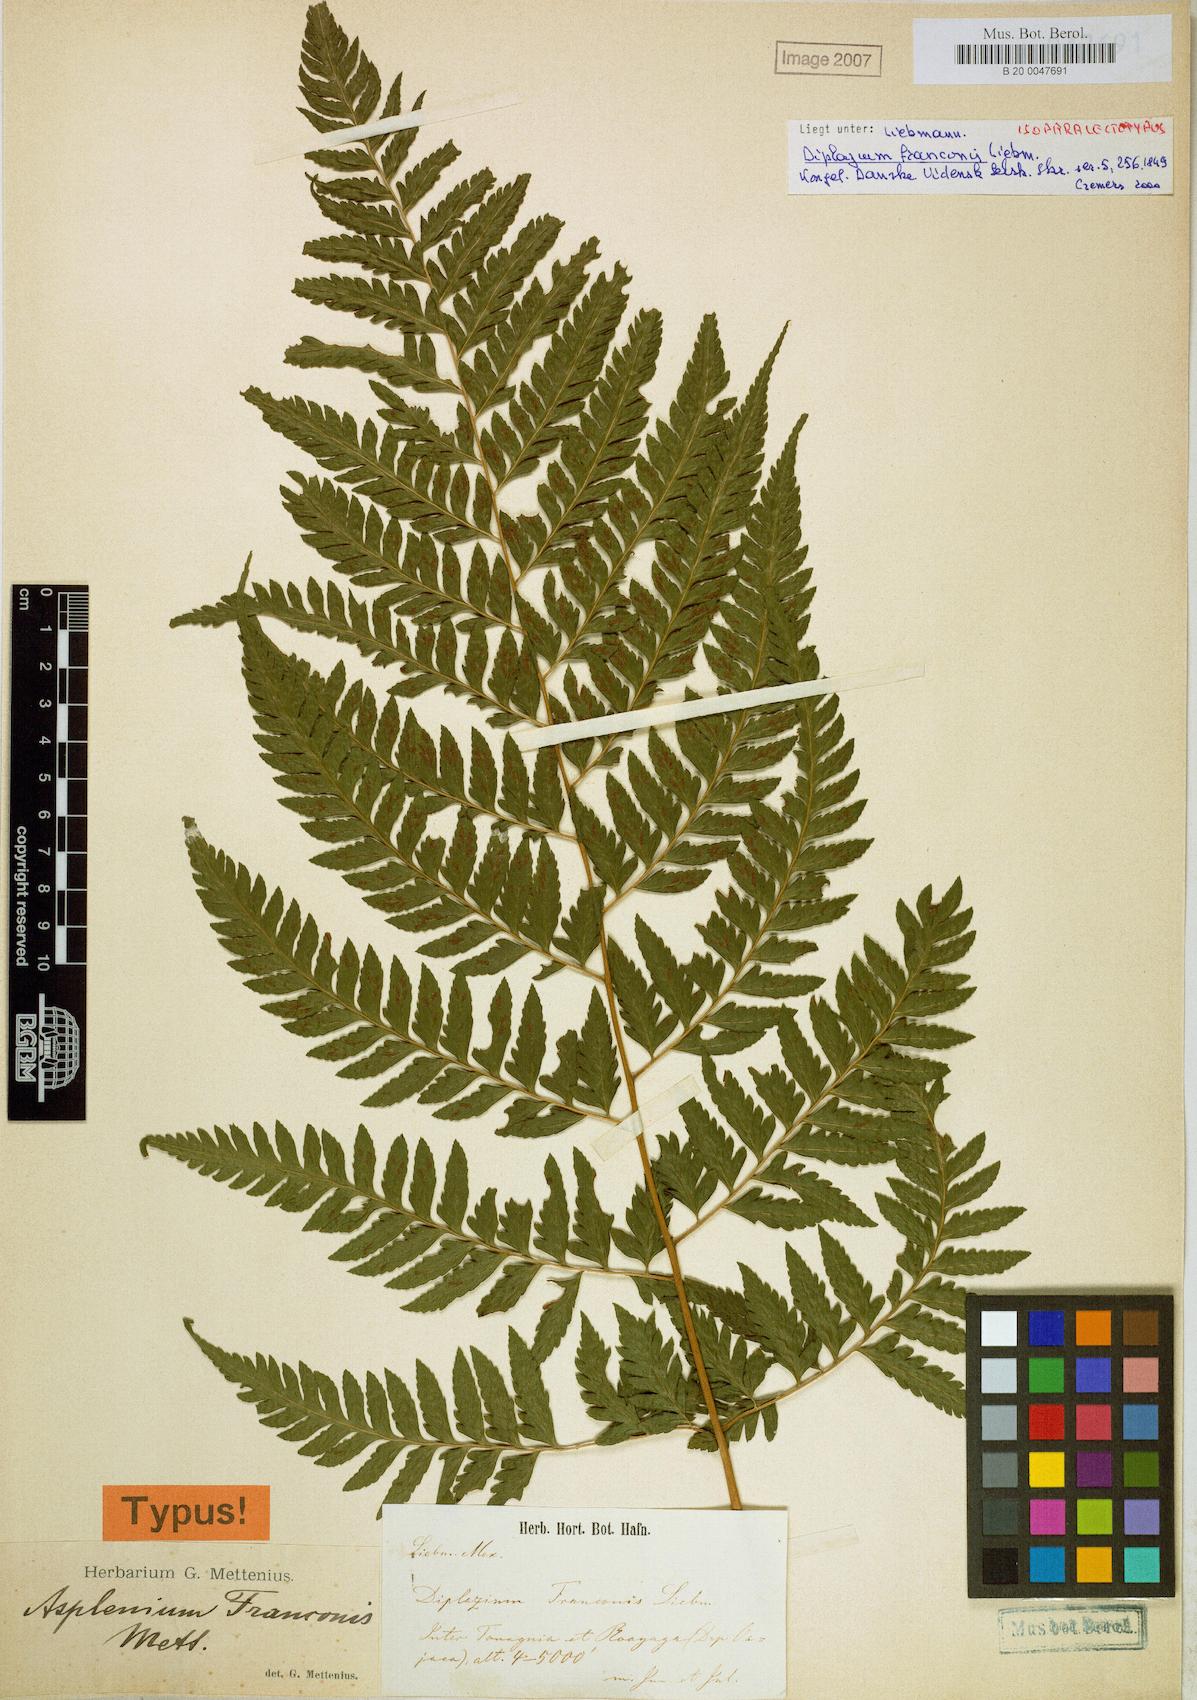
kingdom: Plantae
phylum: Tracheophyta
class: Polypodiopsida
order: Polypodiales
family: Athyriaceae
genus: Diplazium
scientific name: Diplazium franconis
